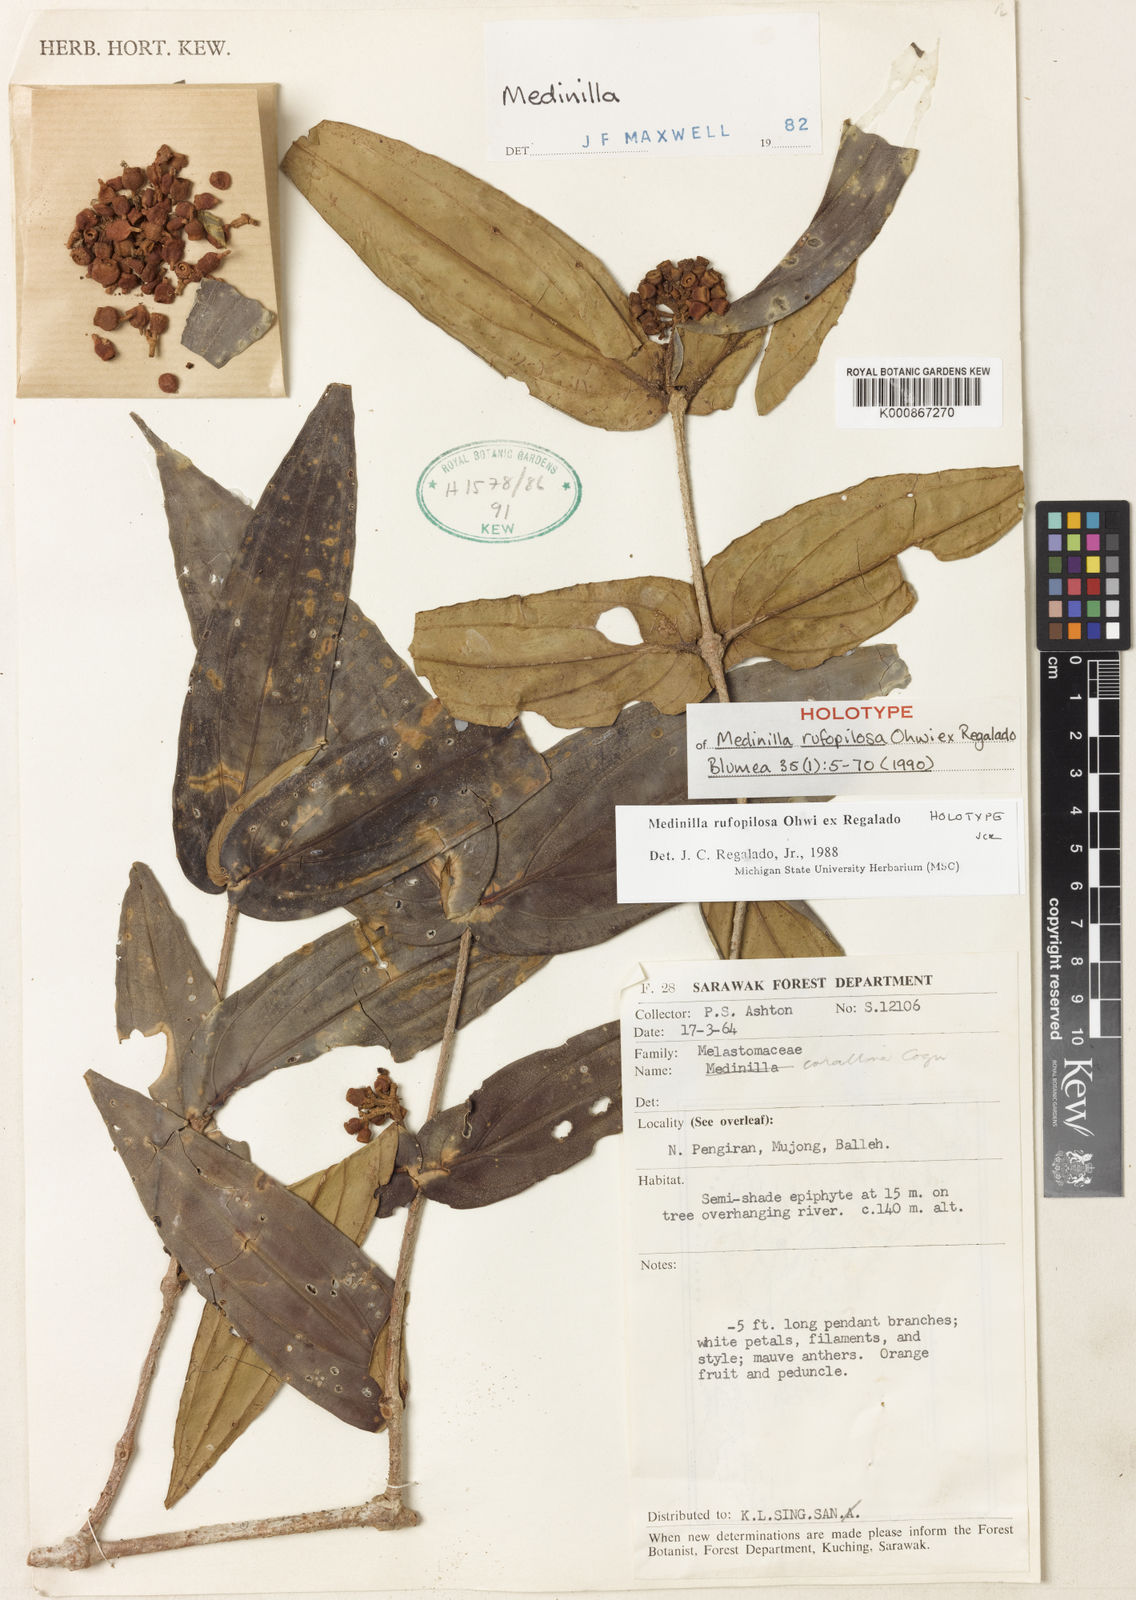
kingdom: Plantae
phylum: Tracheophyta
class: Magnoliopsida
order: Myrtales
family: Melastomataceae
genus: Medinilla
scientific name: Medinilla rufopilosa
